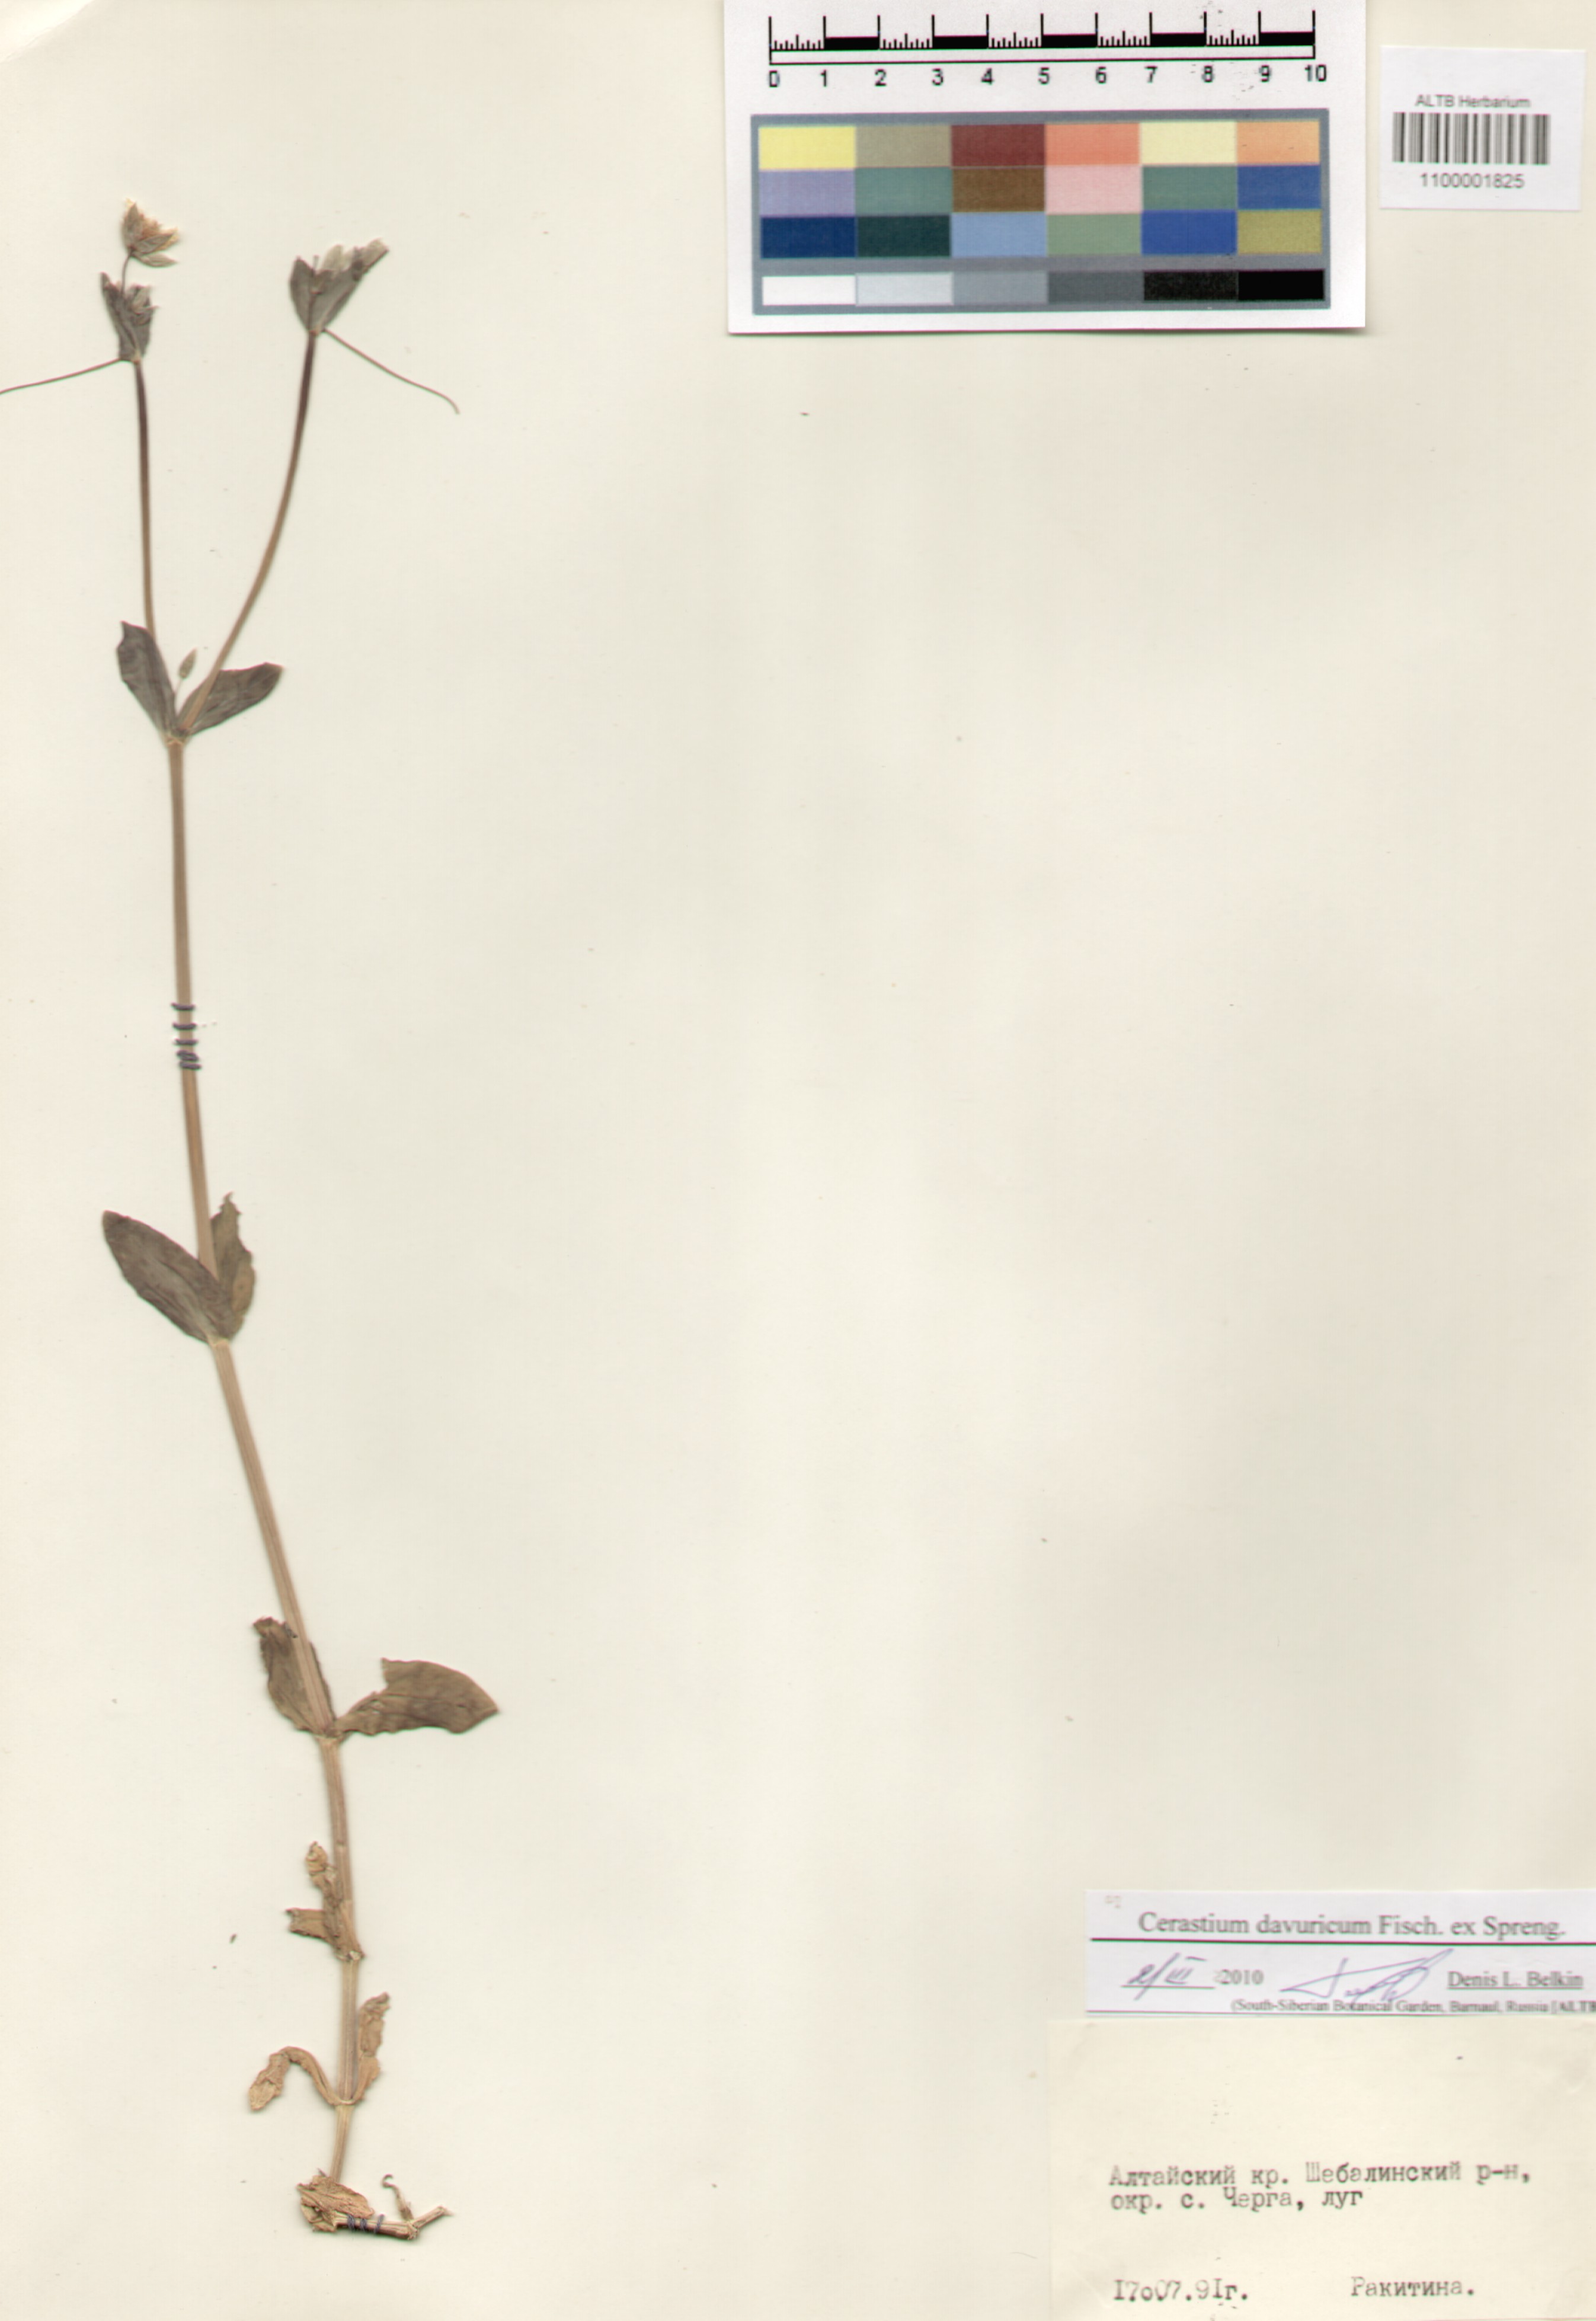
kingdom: Plantae
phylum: Tracheophyta
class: Magnoliopsida
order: Caryophyllales
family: Caryophyllaceae
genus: Dichodon
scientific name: Dichodon davuricum
